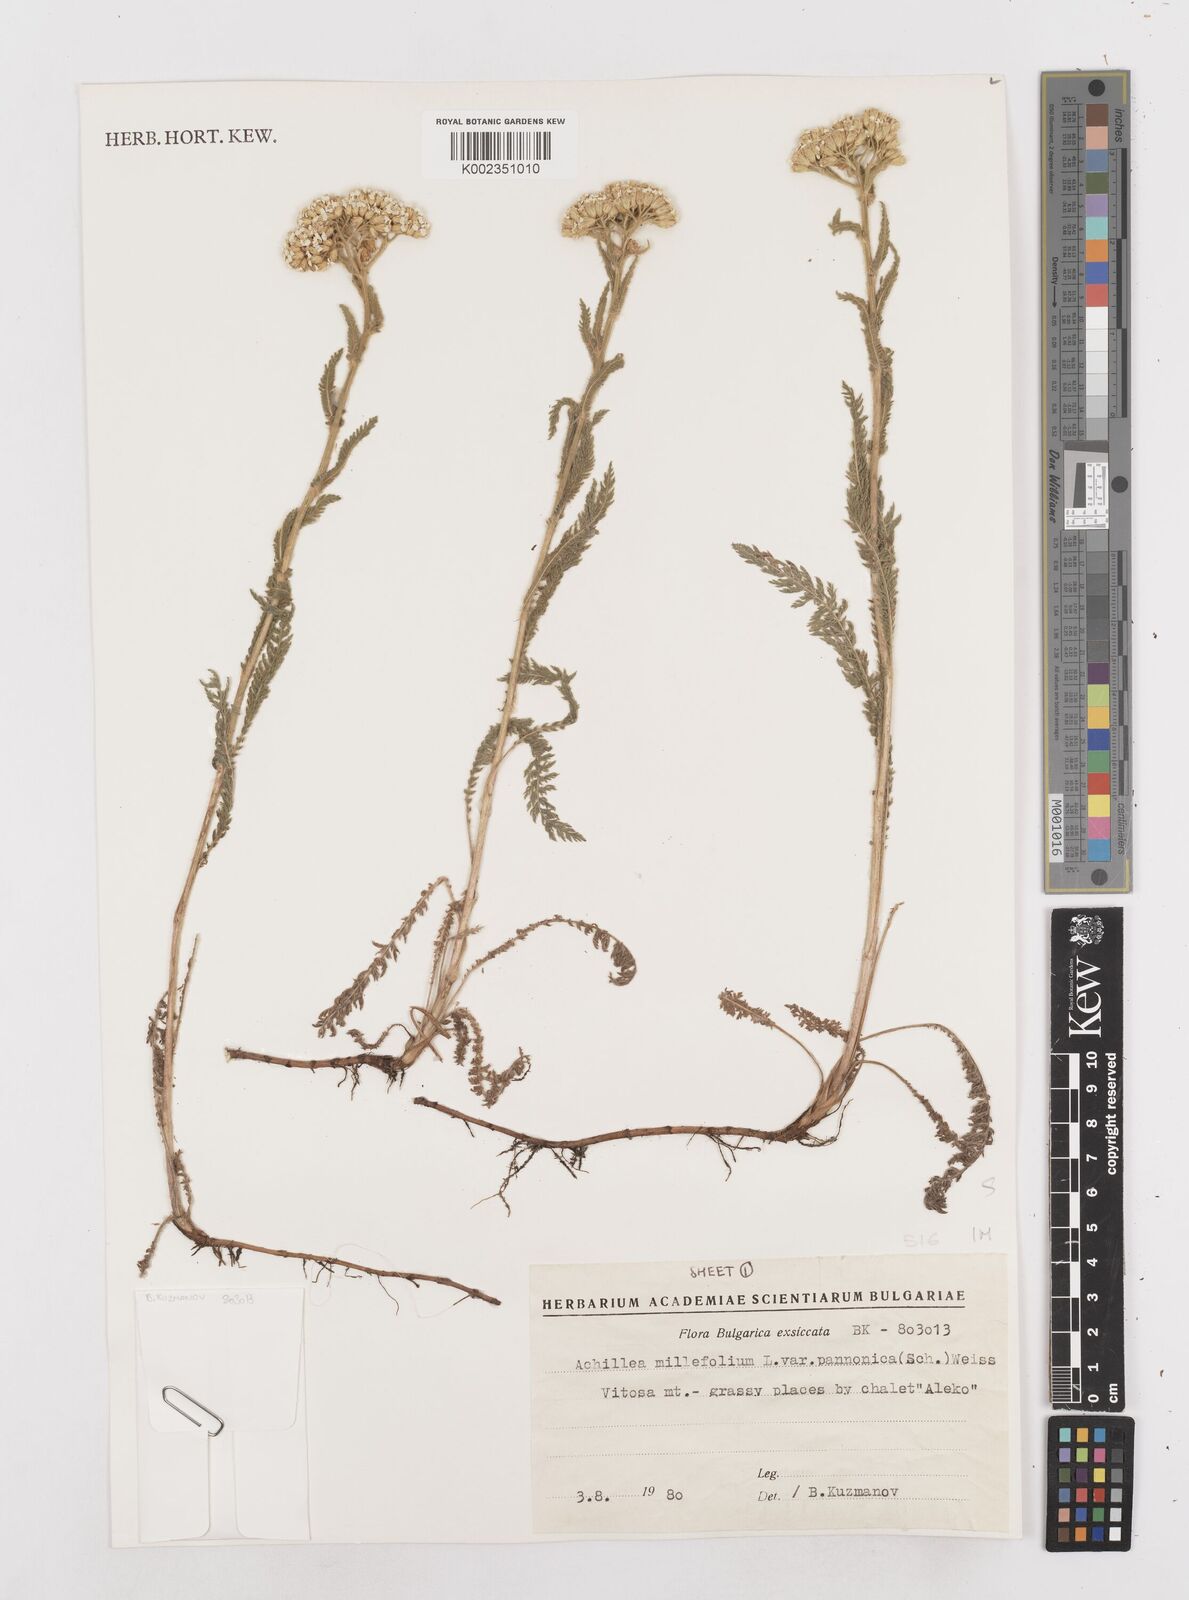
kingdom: Plantae
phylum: Tracheophyta
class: Magnoliopsida
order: Asterales
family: Asteraceae
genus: Achillea
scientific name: Achillea millefolium
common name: Yarrow
